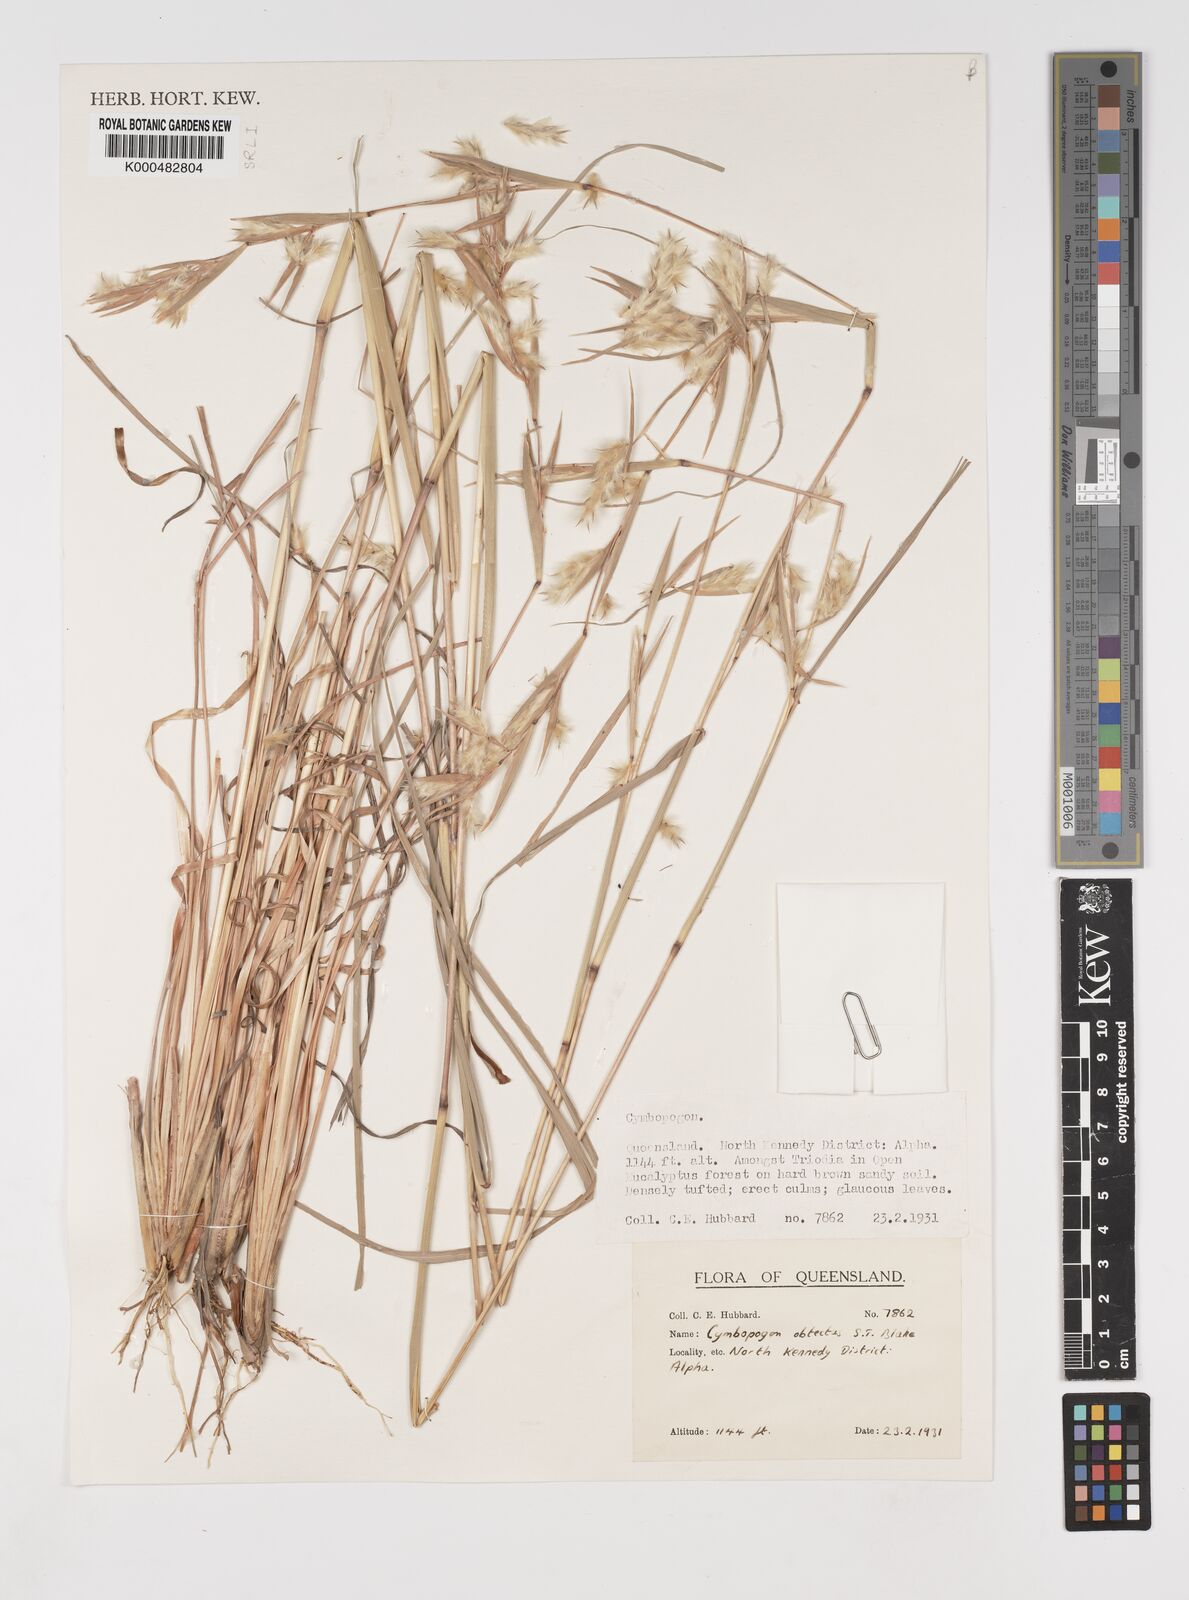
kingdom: Plantae
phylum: Tracheophyta
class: Liliopsida
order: Poales
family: Poaceae
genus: Cymbopogon
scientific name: Cymbopogon obtectus
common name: Silky heads
